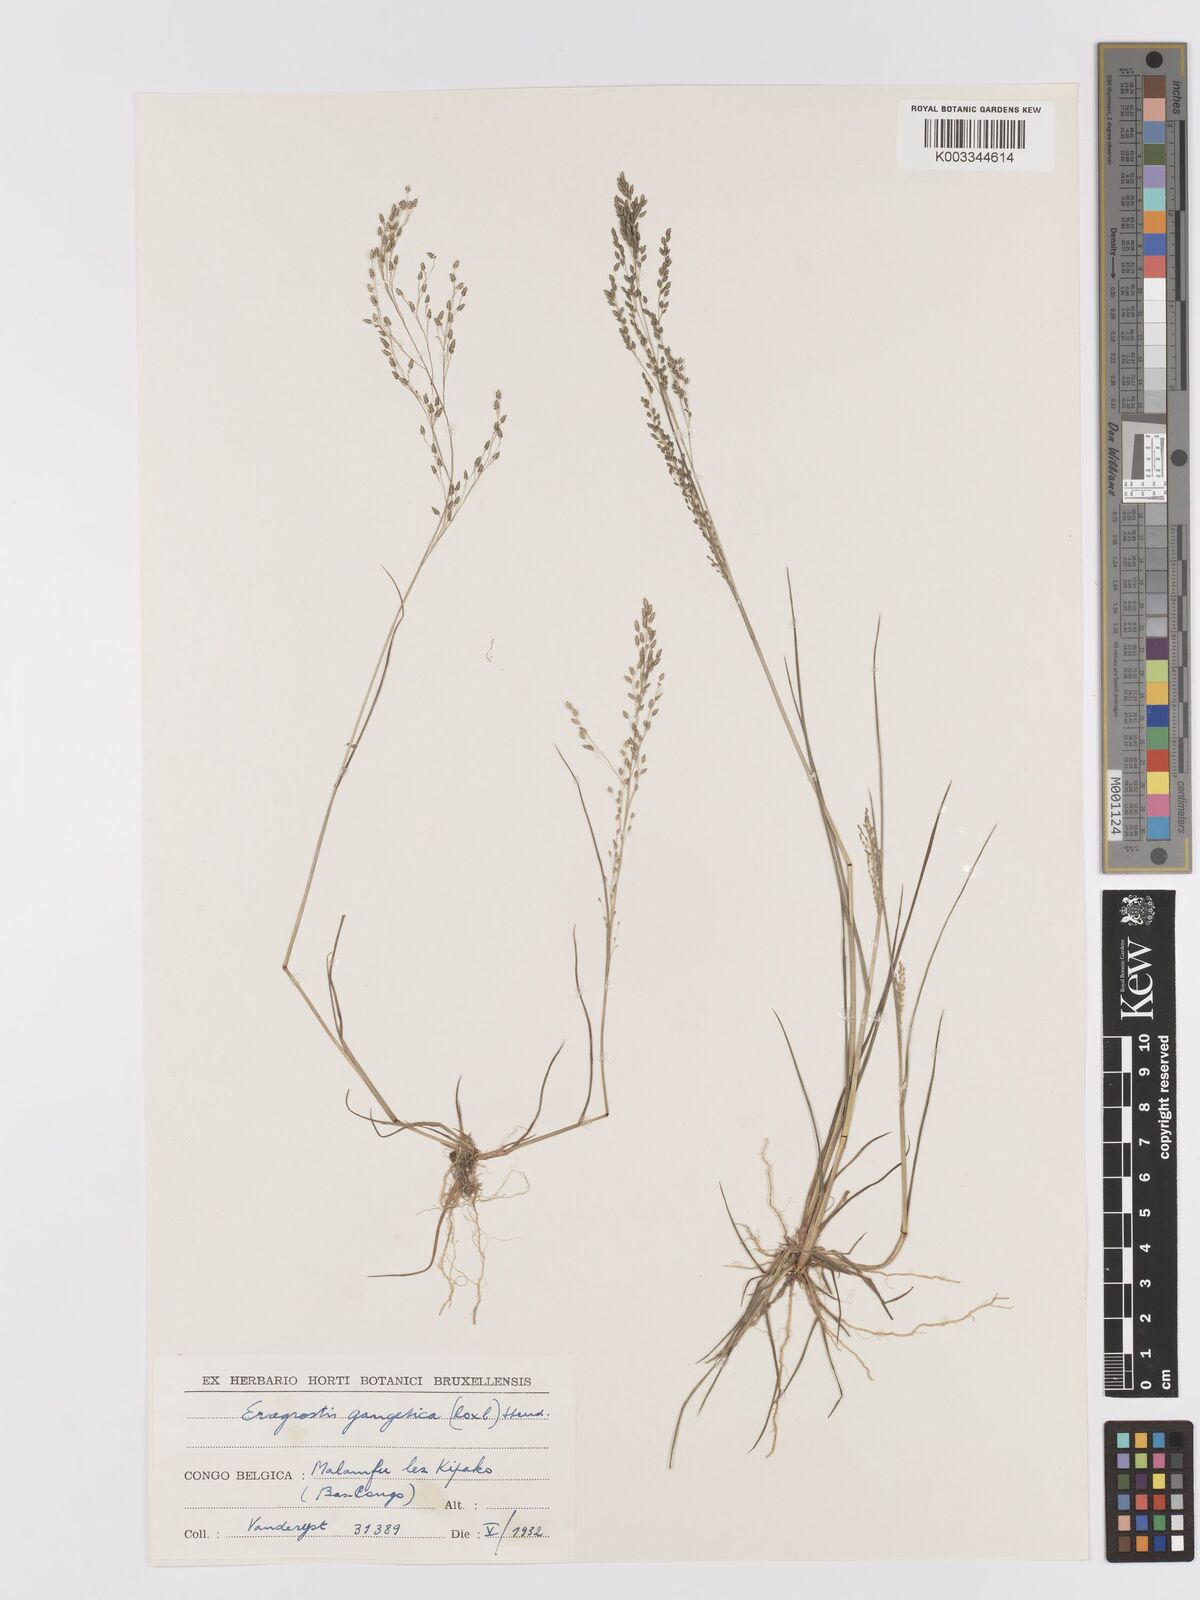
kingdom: Plantae
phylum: Tracheophyta
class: Liliopsida
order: Poales
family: Poaceae
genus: Eragrostis
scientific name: Eragrostis gangetica
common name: Slimflower lovegrass
